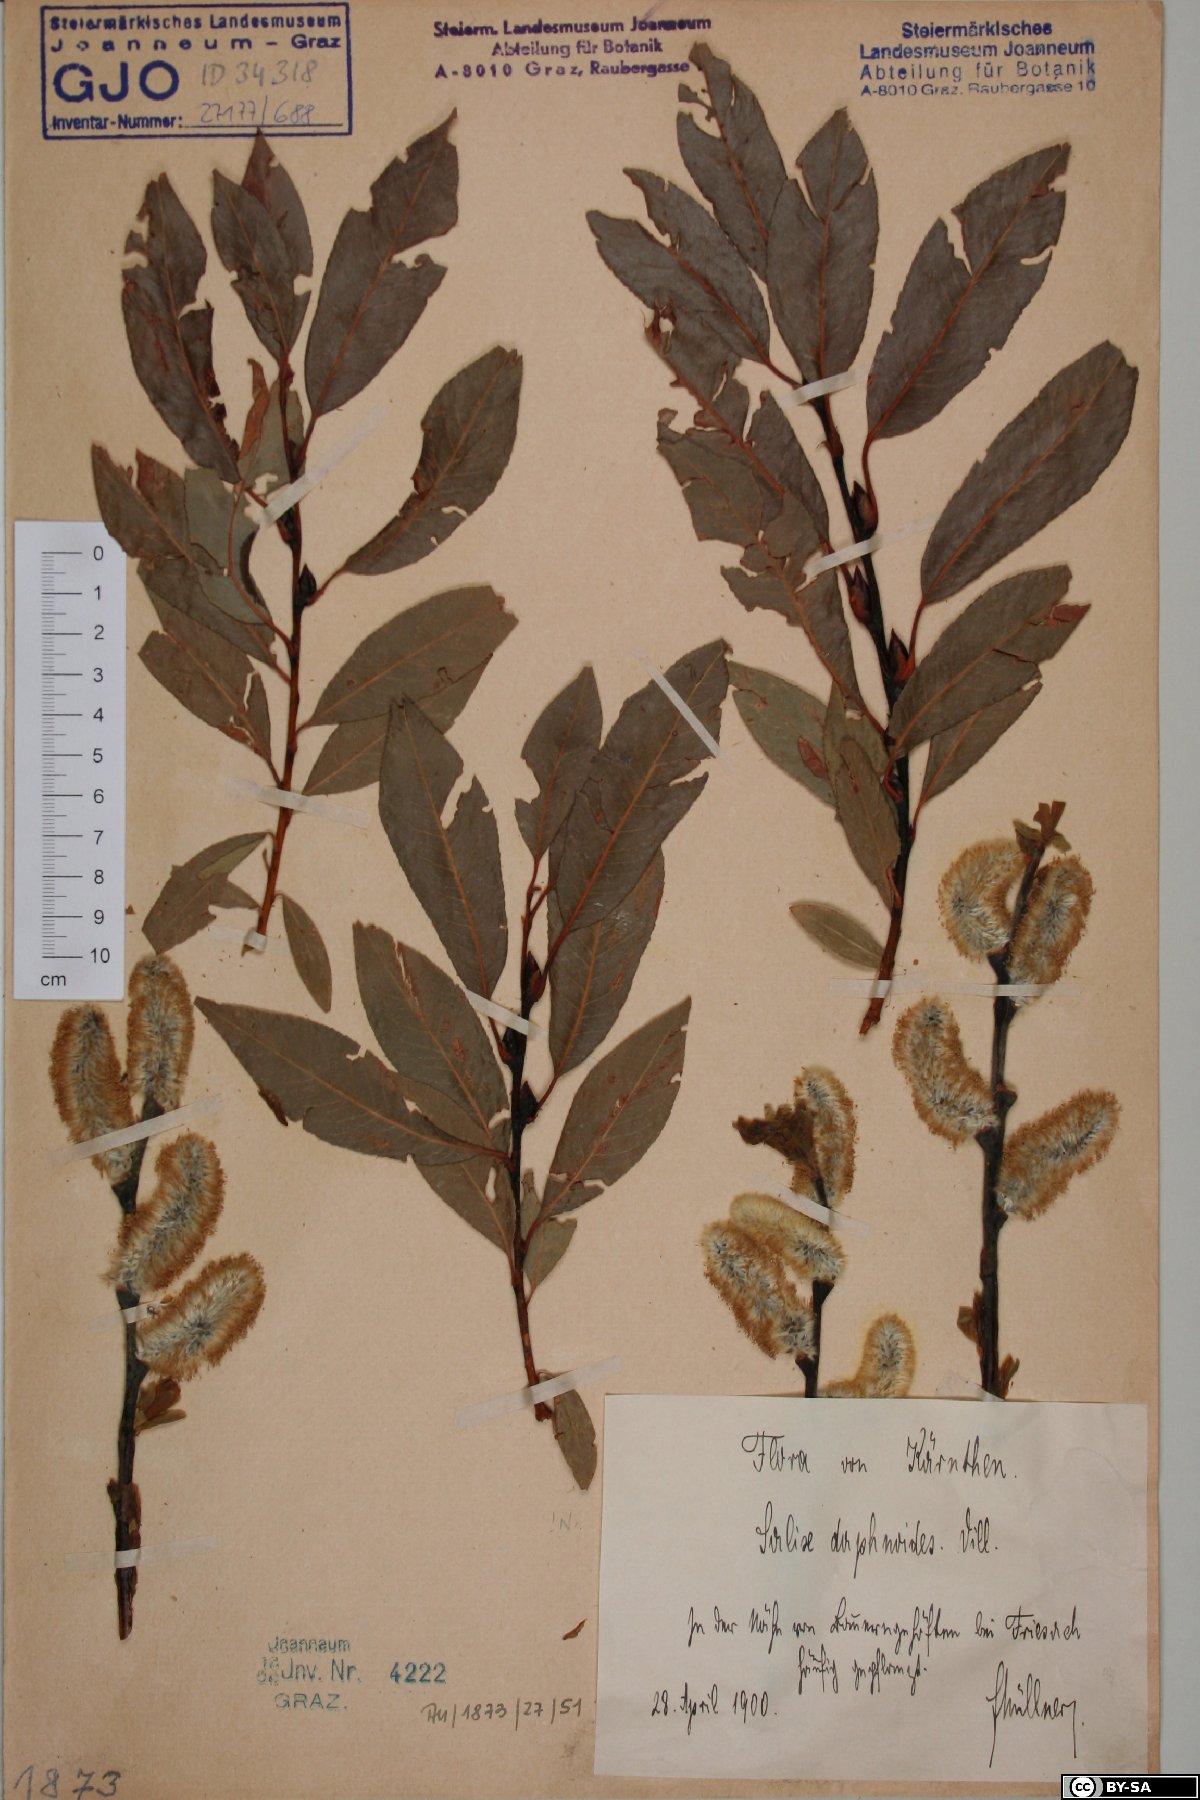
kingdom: Plantae
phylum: Tracheophyta
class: Magnoliopsida
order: Malpighiales
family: Salicaceae
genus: Salix
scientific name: Salix daphnoides
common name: European violet-willow
